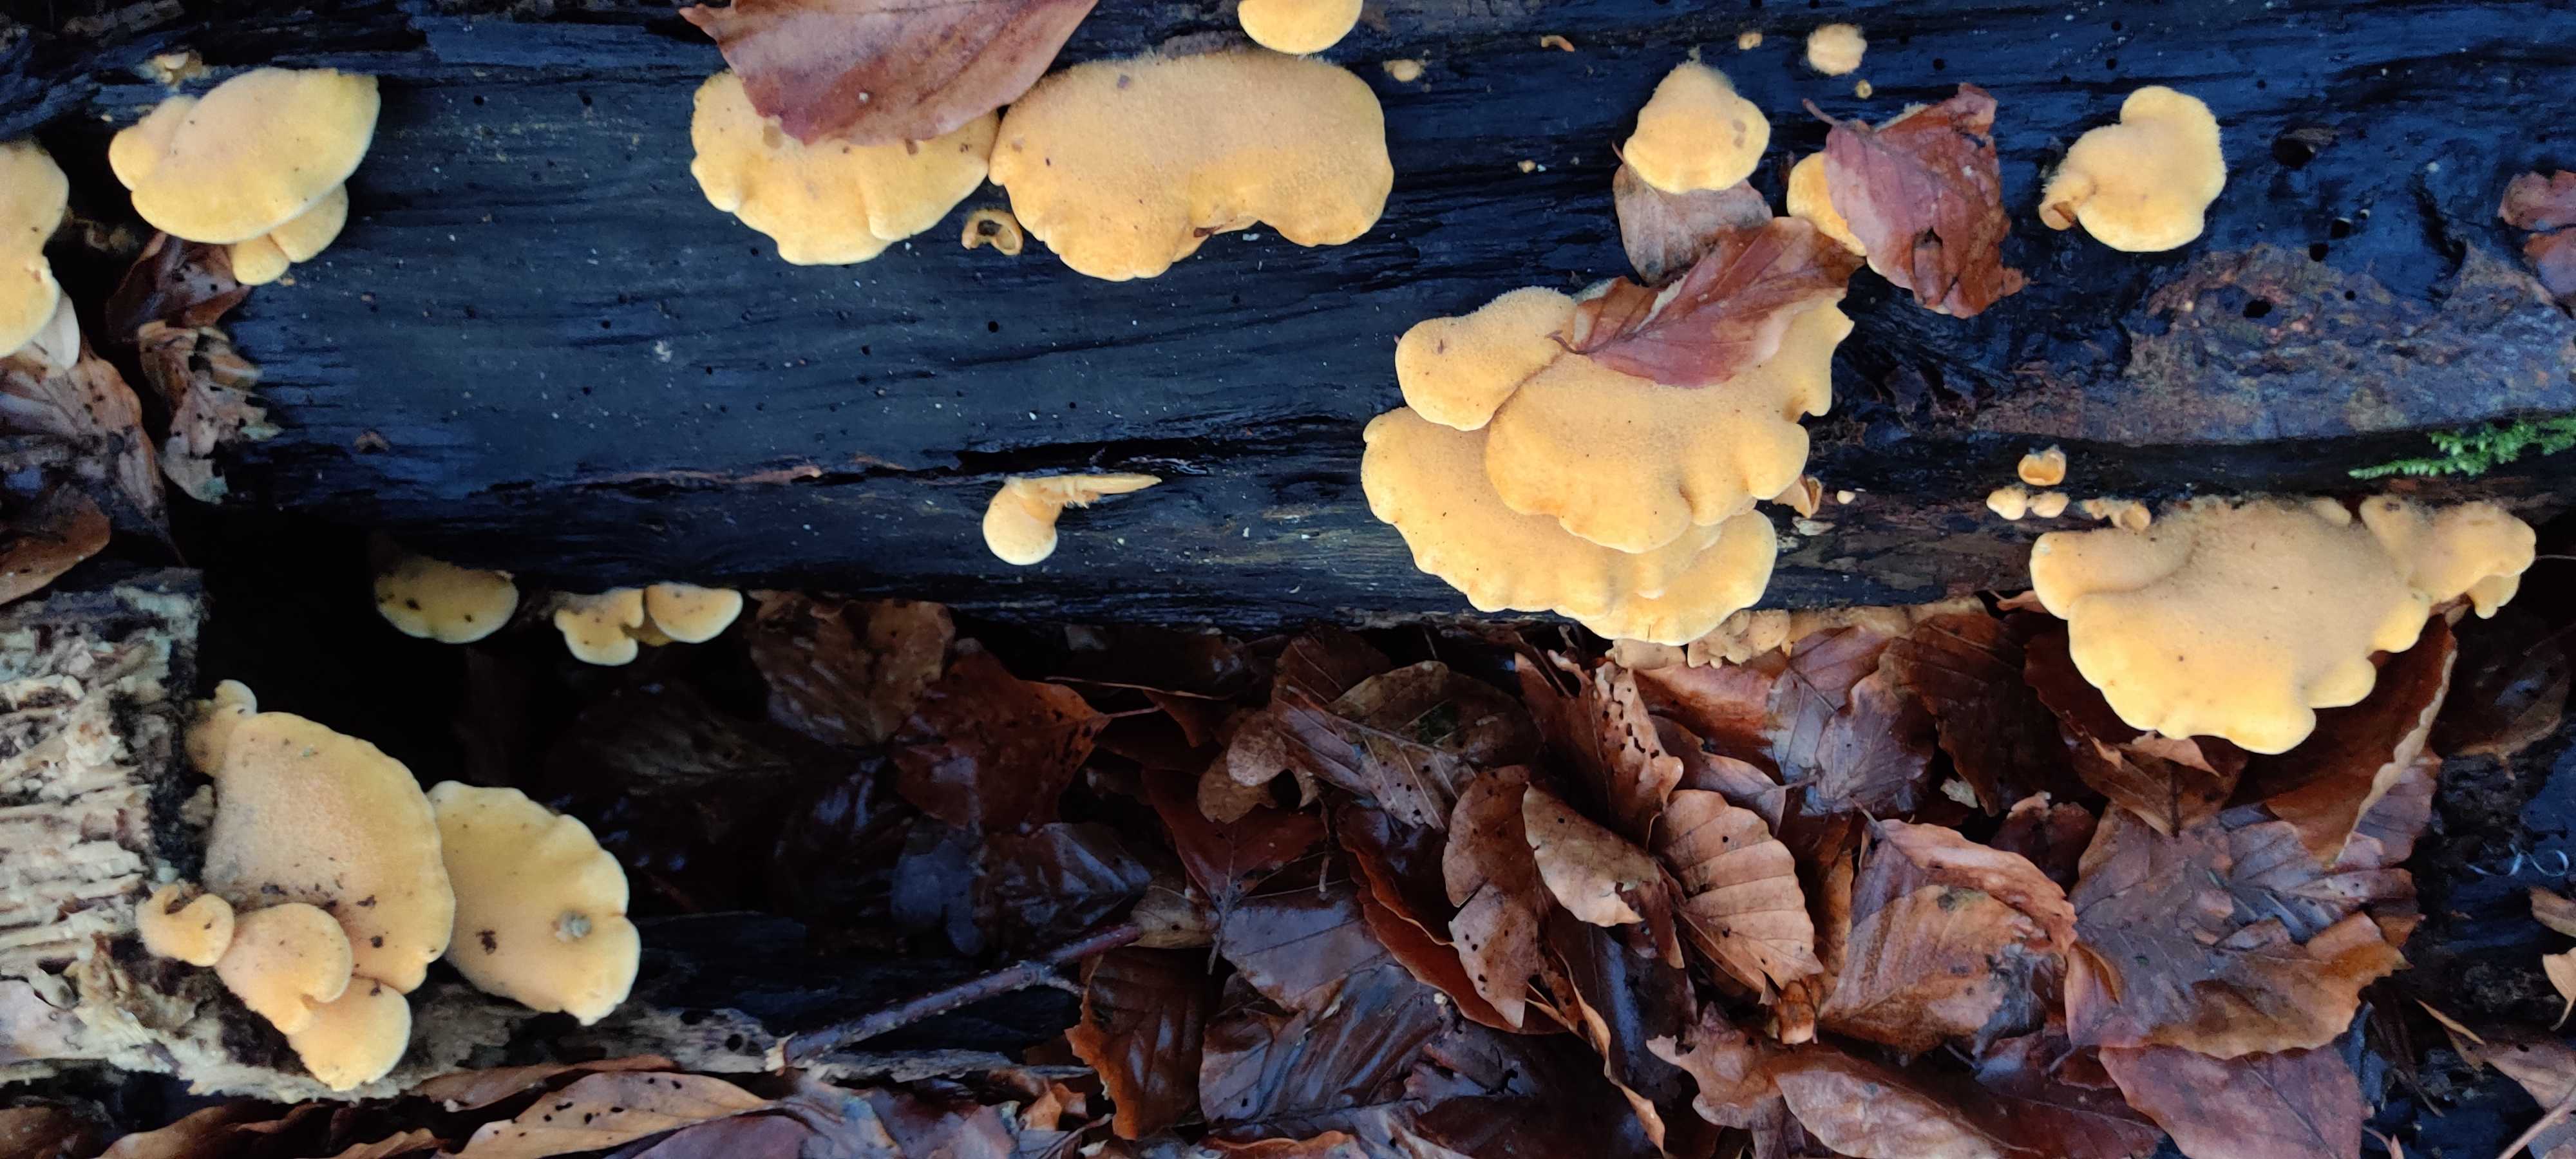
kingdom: Fungi
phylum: Basidiomycota
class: Agaricomycetes
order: Agaricales
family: Phyllotopsidaceae
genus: Phyllotopsis
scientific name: Phyllotopsis nidulans
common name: okkerblad
